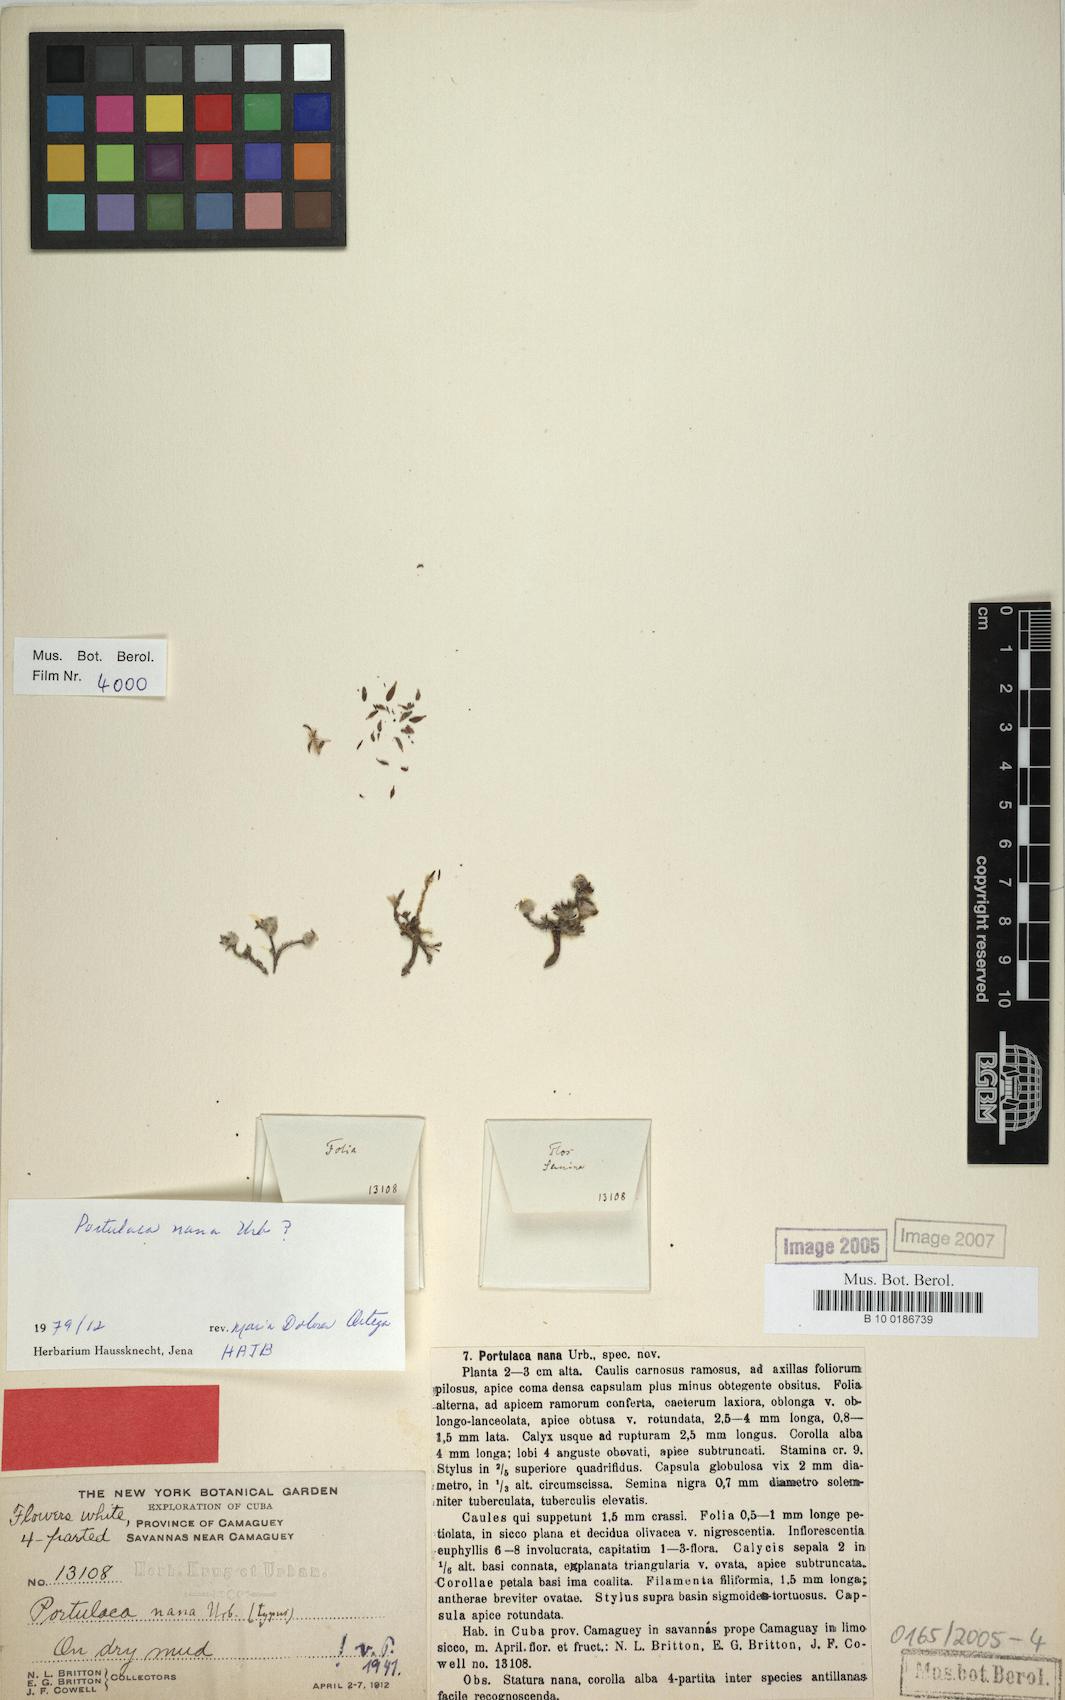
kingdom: Plantae
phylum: Tracheophyta
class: Magnoliopsida
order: Caryophyllales
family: Portulacaceae
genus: Portulaca
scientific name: Portulaca brevifolia
